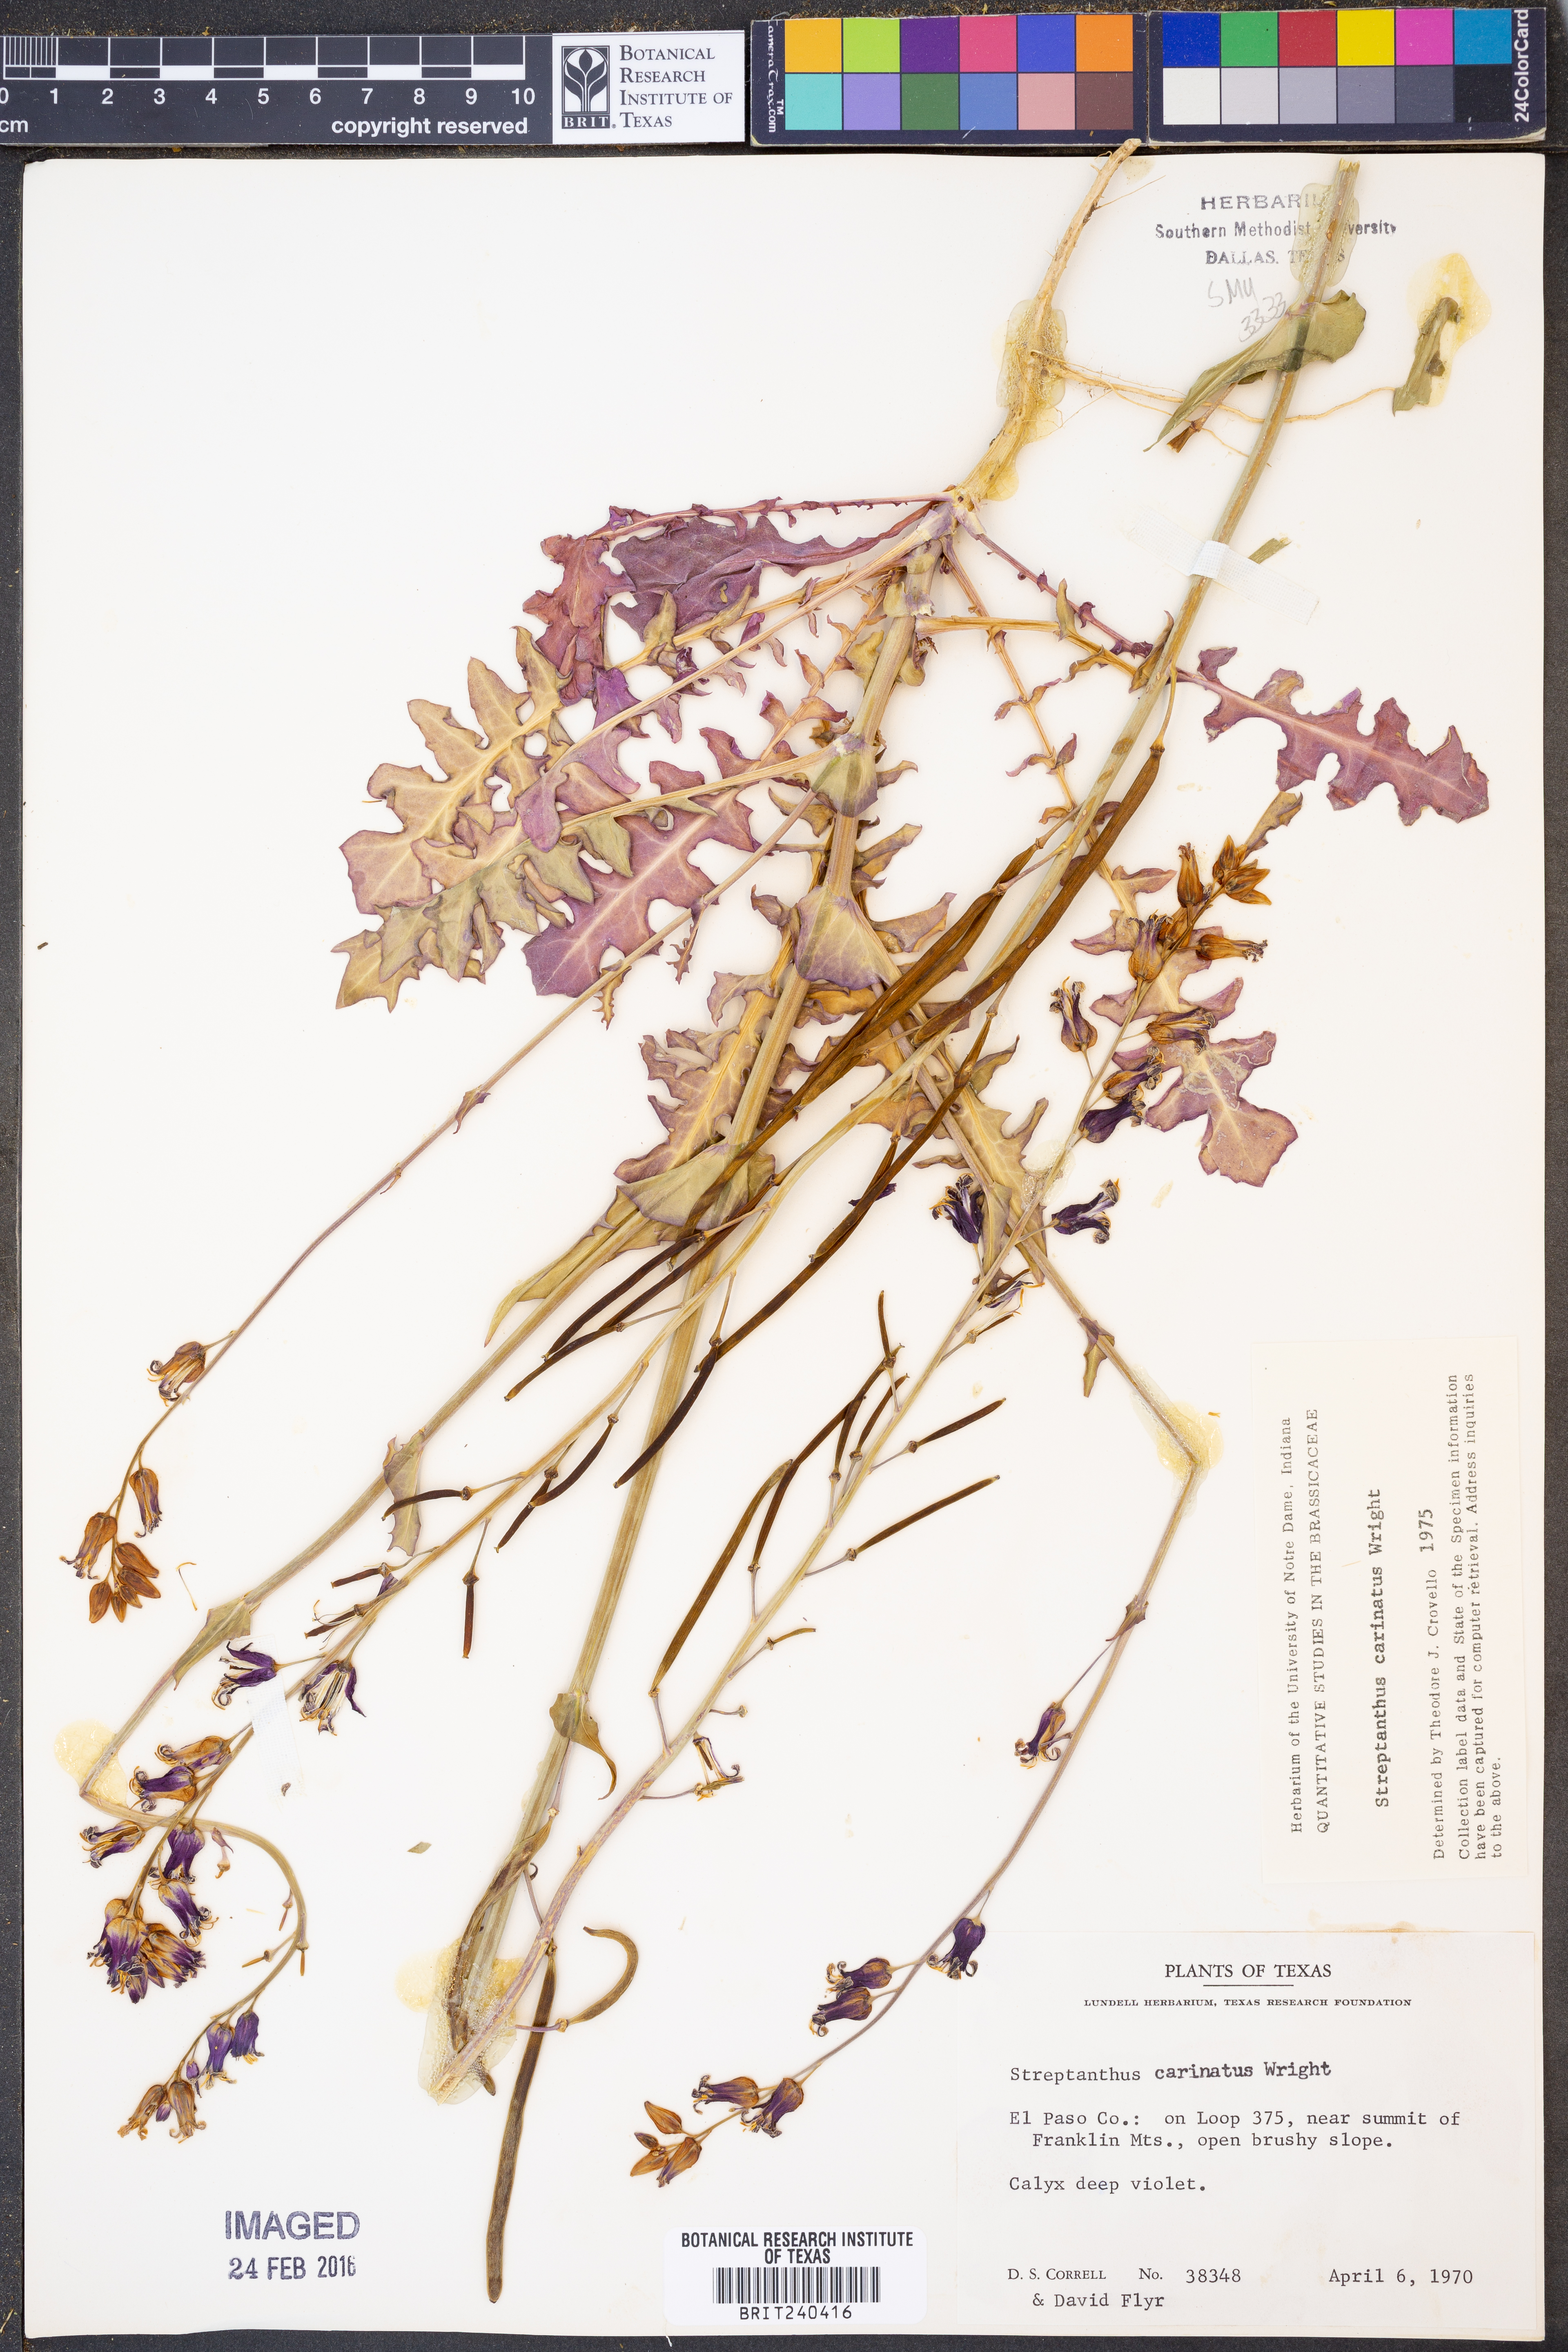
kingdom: Plantae
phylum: Tracheophyta
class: Magnoliopsida
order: Brassicales
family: Brassicaceae
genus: Streptanthus
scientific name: Streptanthus carinatus
